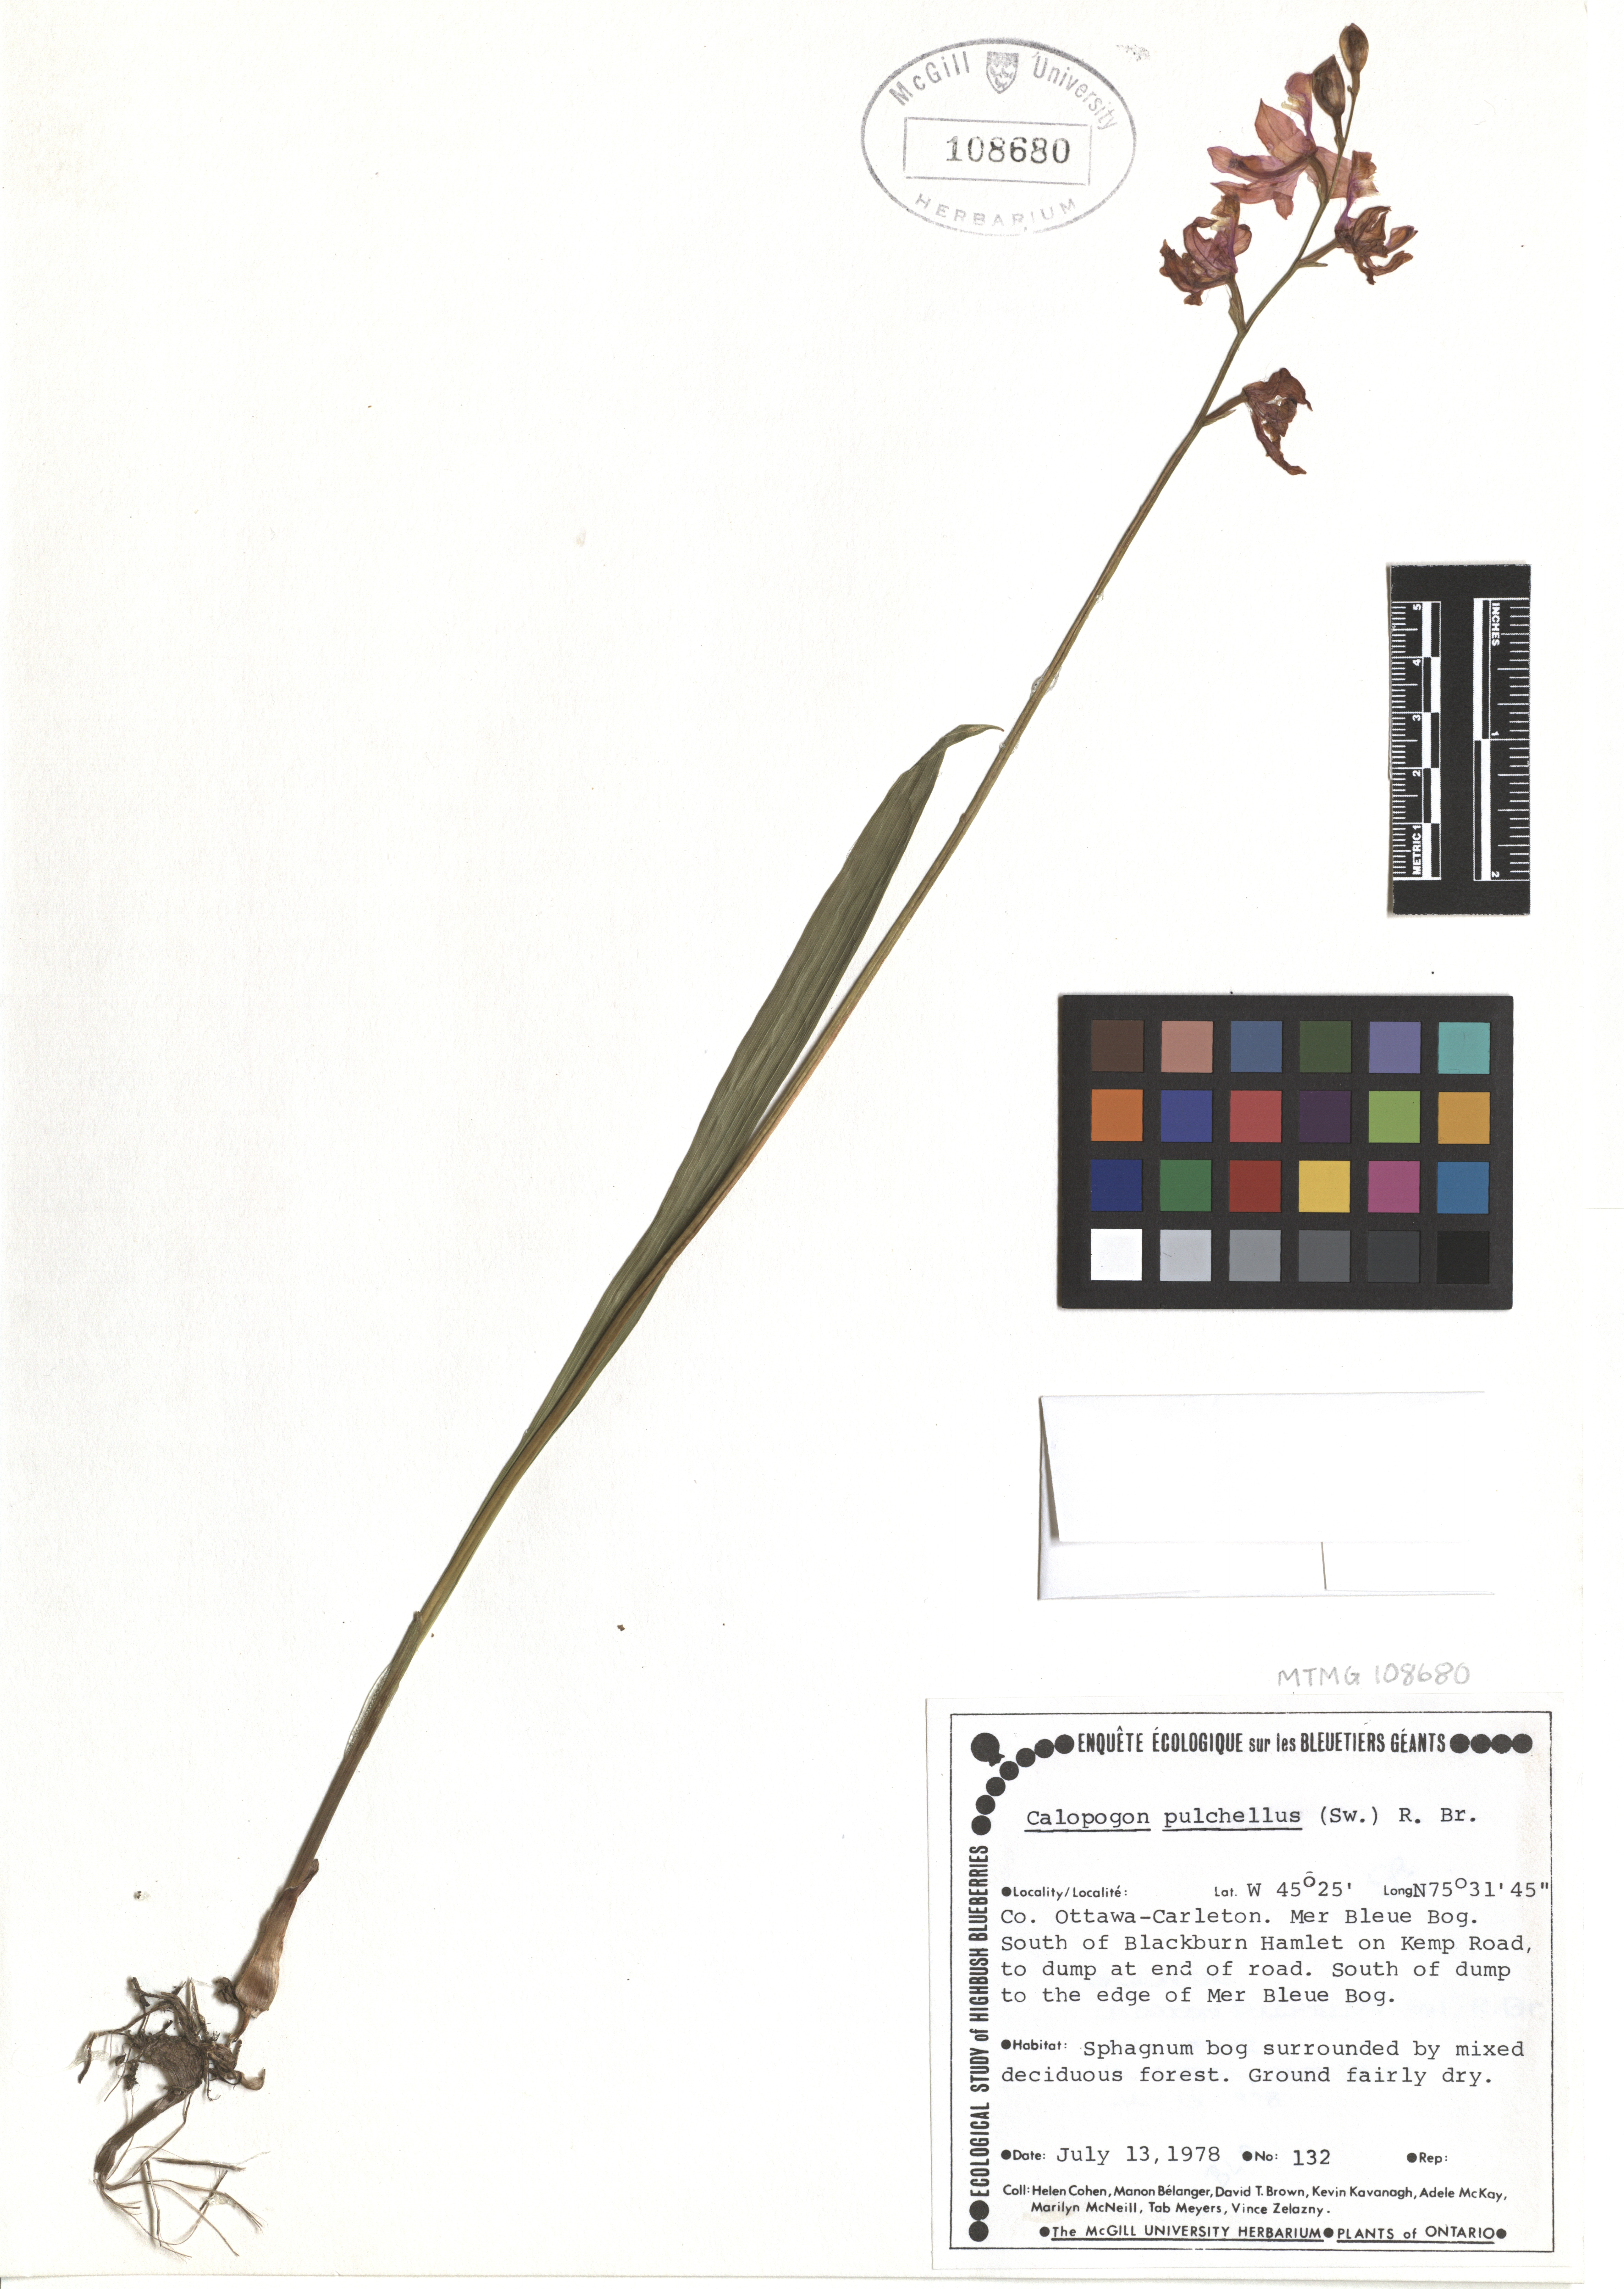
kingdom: Plantae
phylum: Tracheophyta
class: Liliopsida
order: Asparagales
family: Orchidaceae
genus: Calopogon
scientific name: Calopogon tuberosus
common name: Grass-pink
